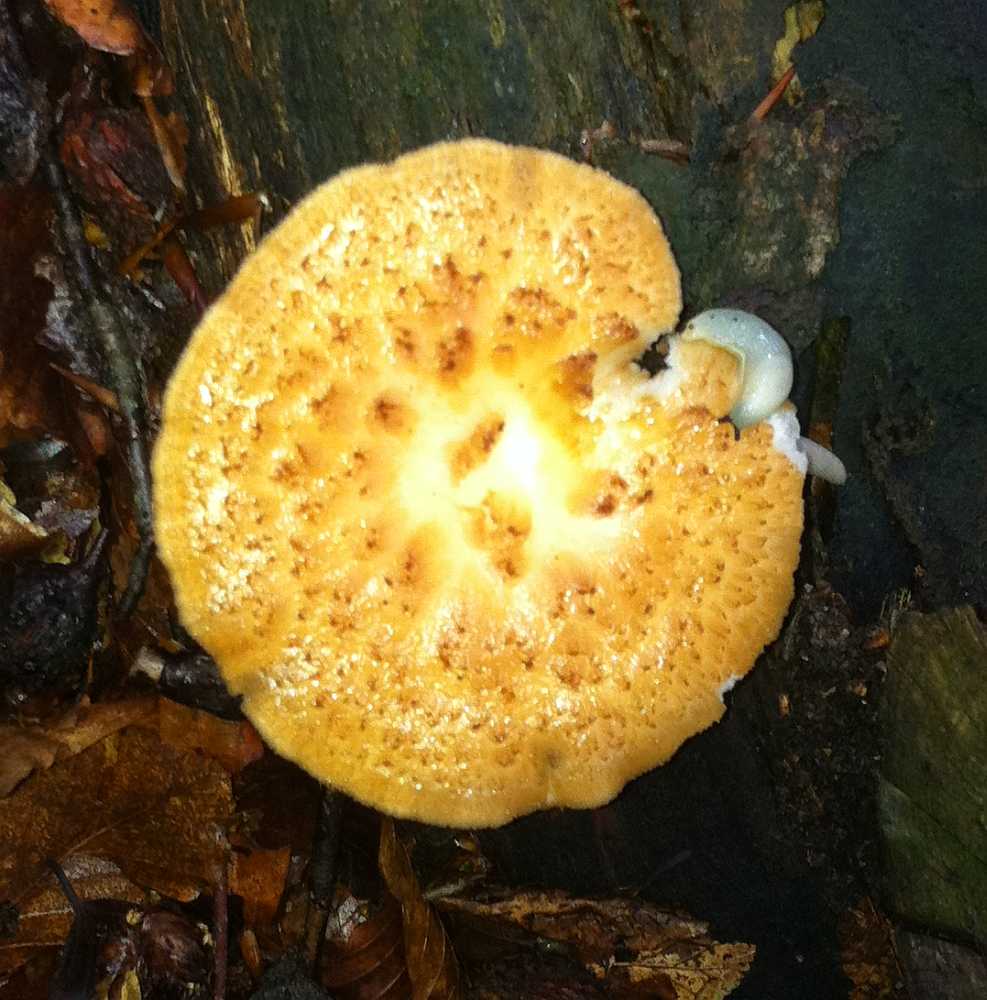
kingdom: Fungi
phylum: Basidiomycota
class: Agaricomycetes
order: Polyporales
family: Polyporaceae
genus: Polyporus
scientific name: Polyporus tuberaster
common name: knoldet stilkporesvamp
